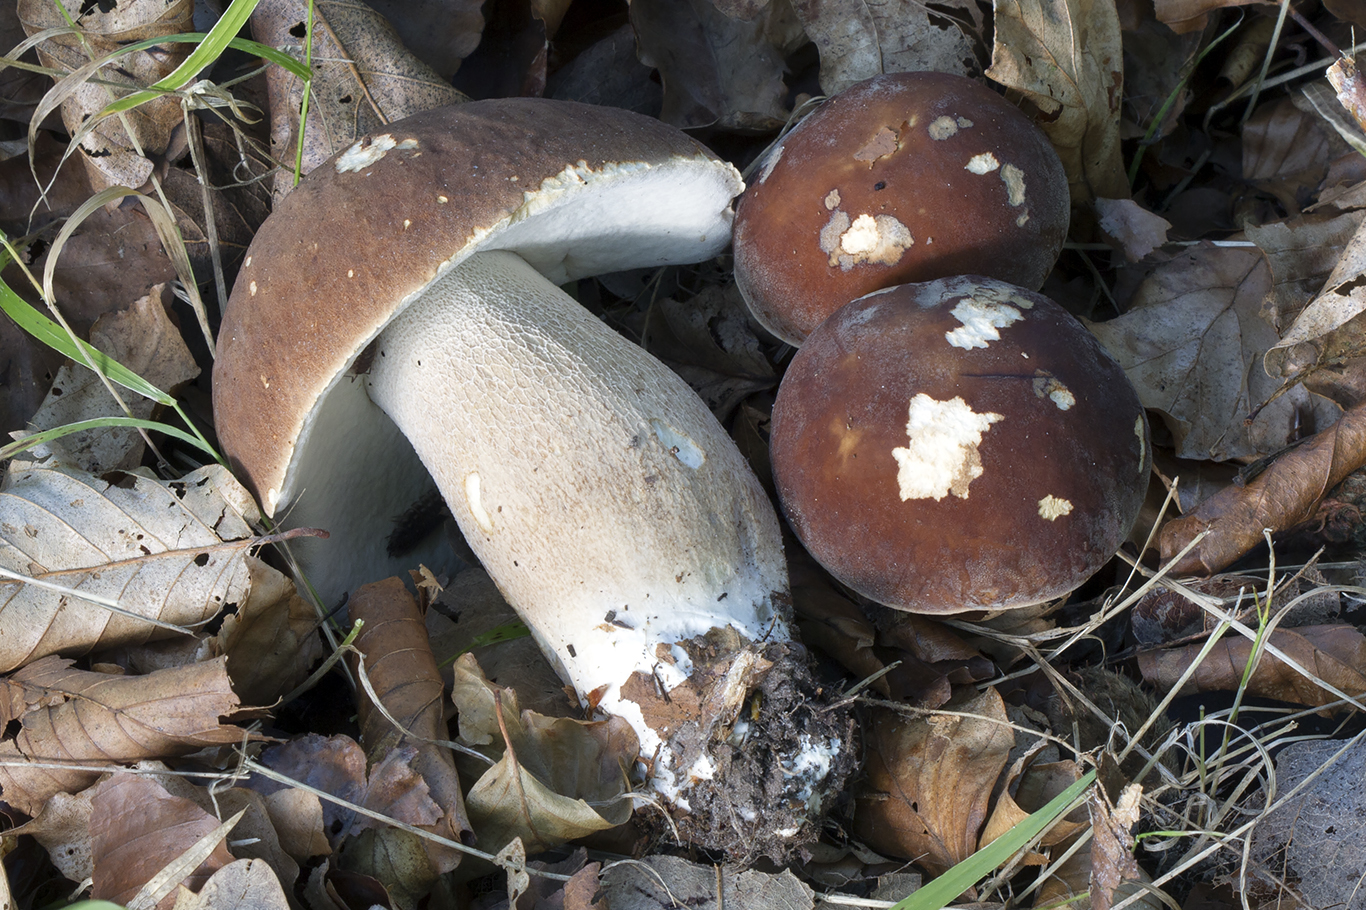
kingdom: Fungi
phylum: Basidiomycota
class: Agaricomycetes
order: Boletales
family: Boletaceae
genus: Boletus
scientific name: Boletus reticulatus
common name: sommer-rørhat
